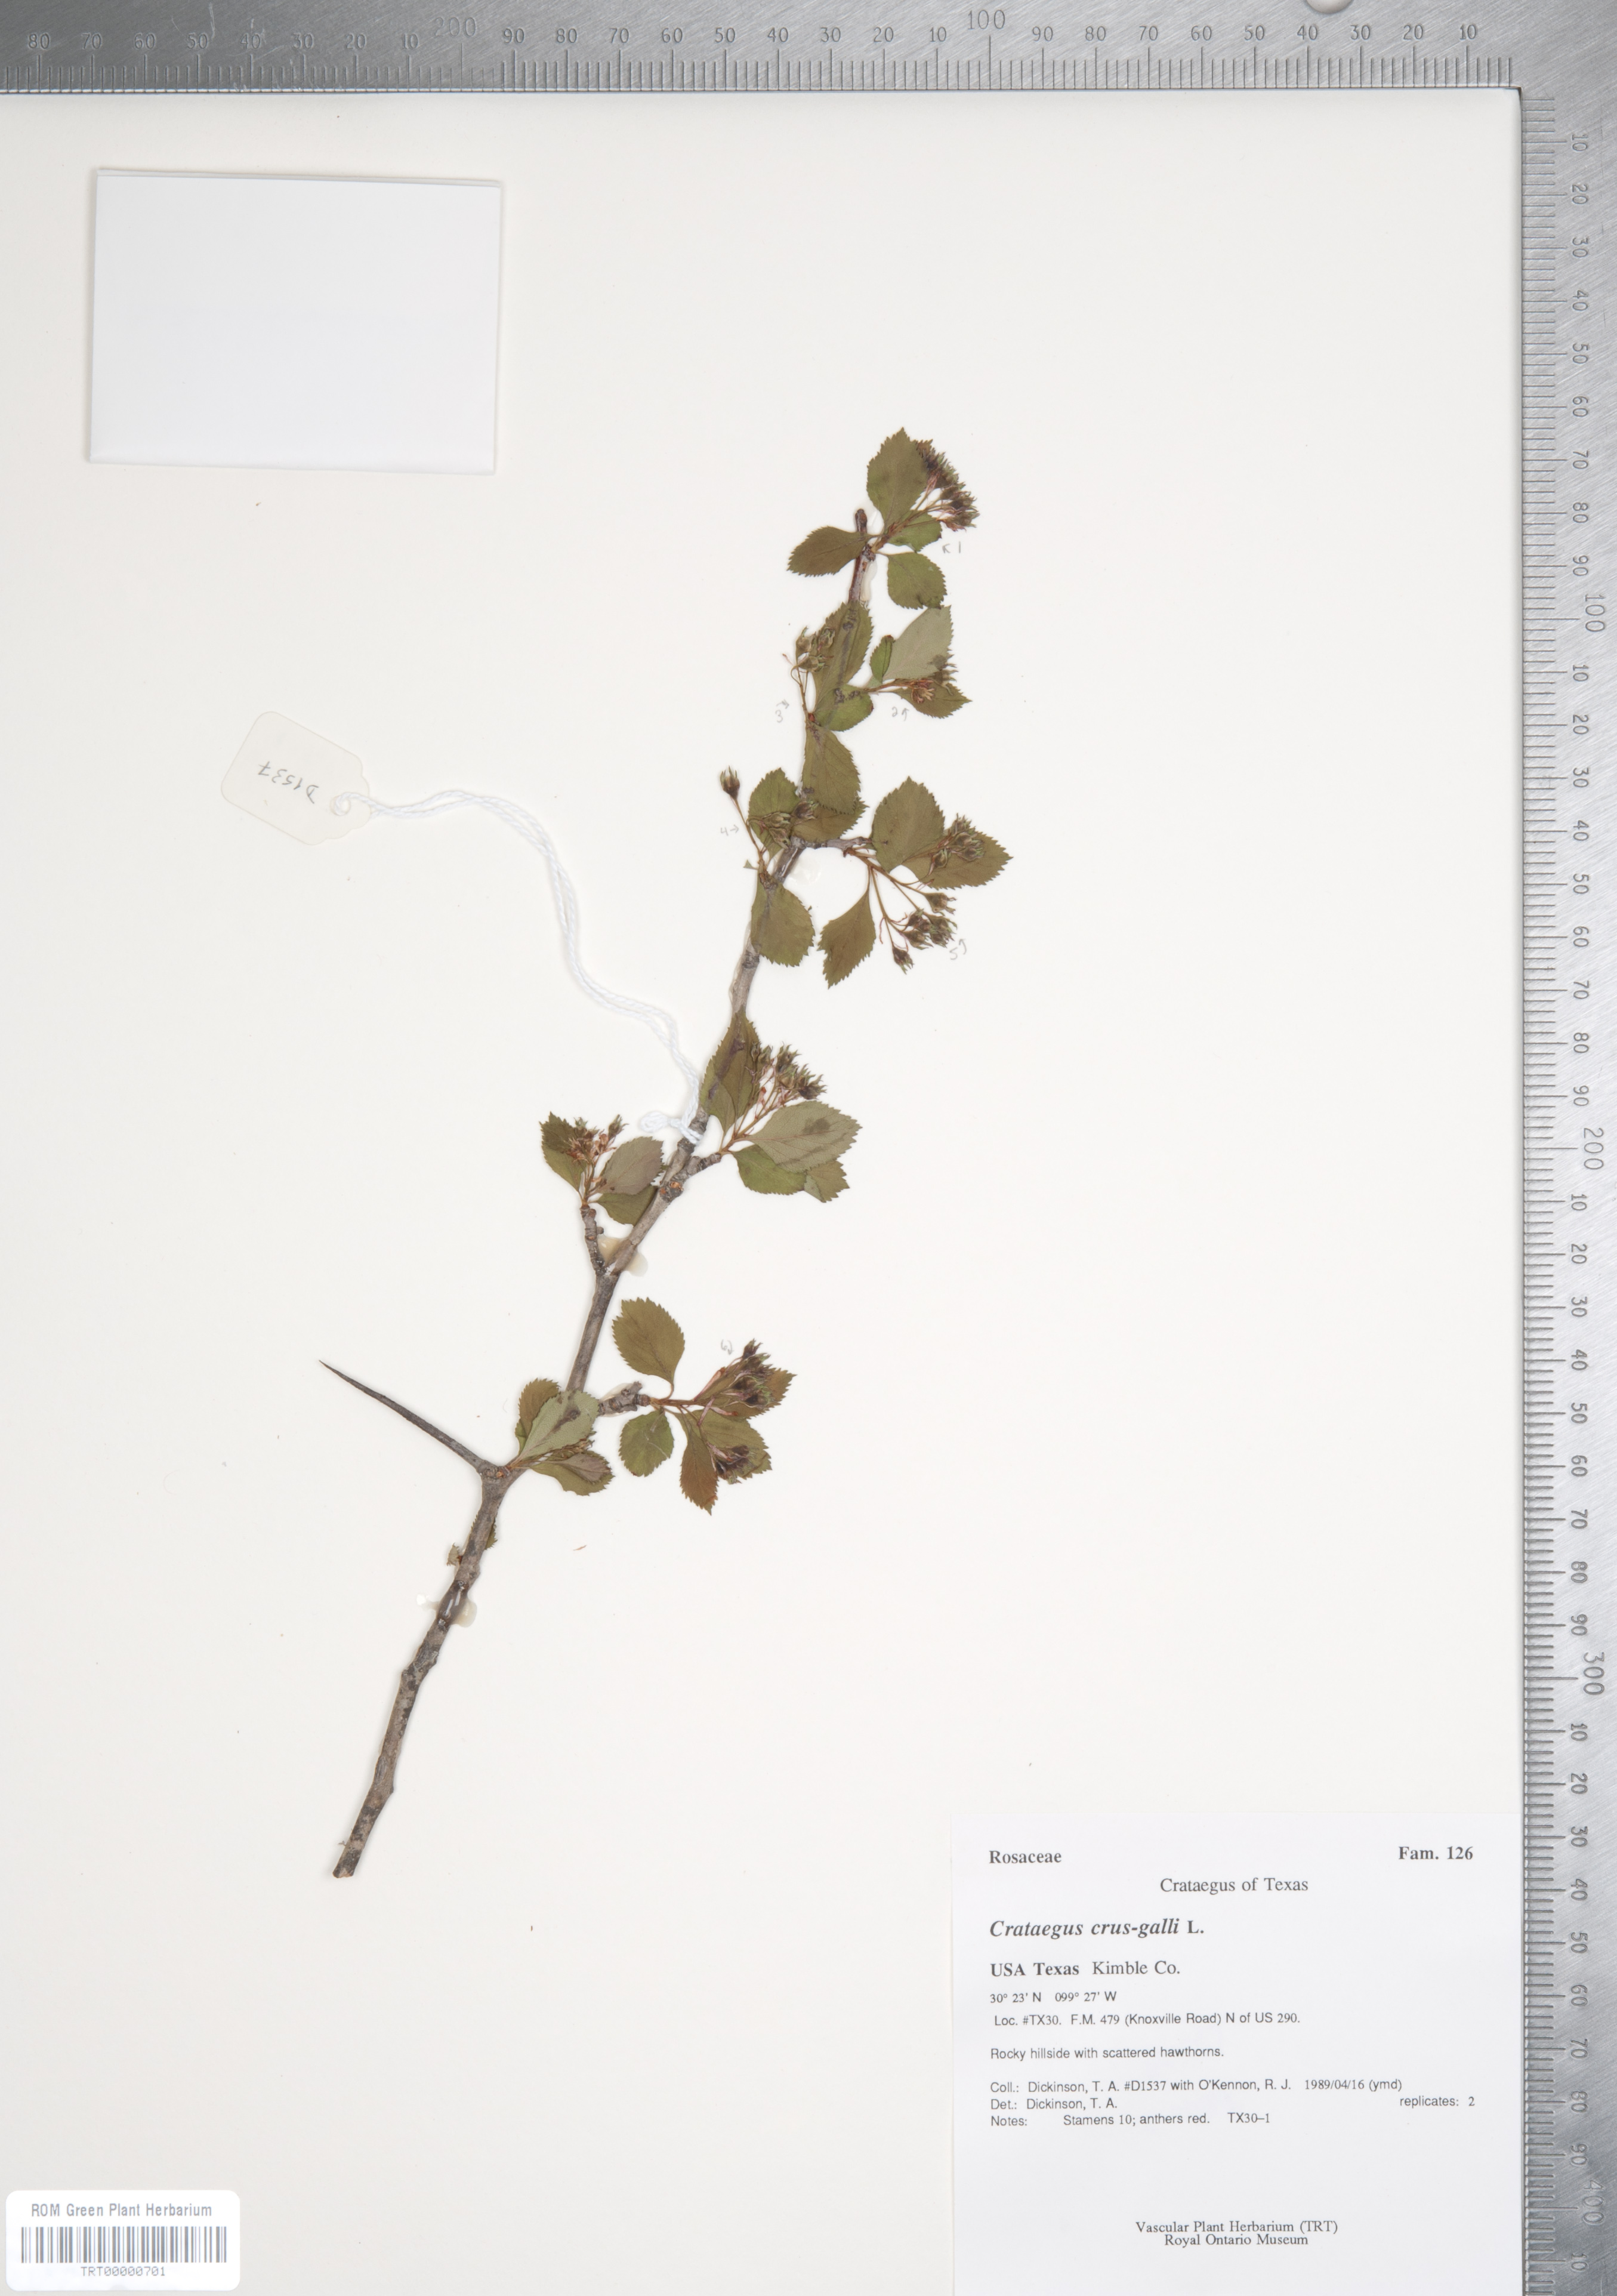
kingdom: Plantae
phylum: Tracheophyta
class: Magnoliopsida
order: Rosales
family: Rosaceae
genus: Crataegus
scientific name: Crataegus crus-galli
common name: Cockspurthorn
